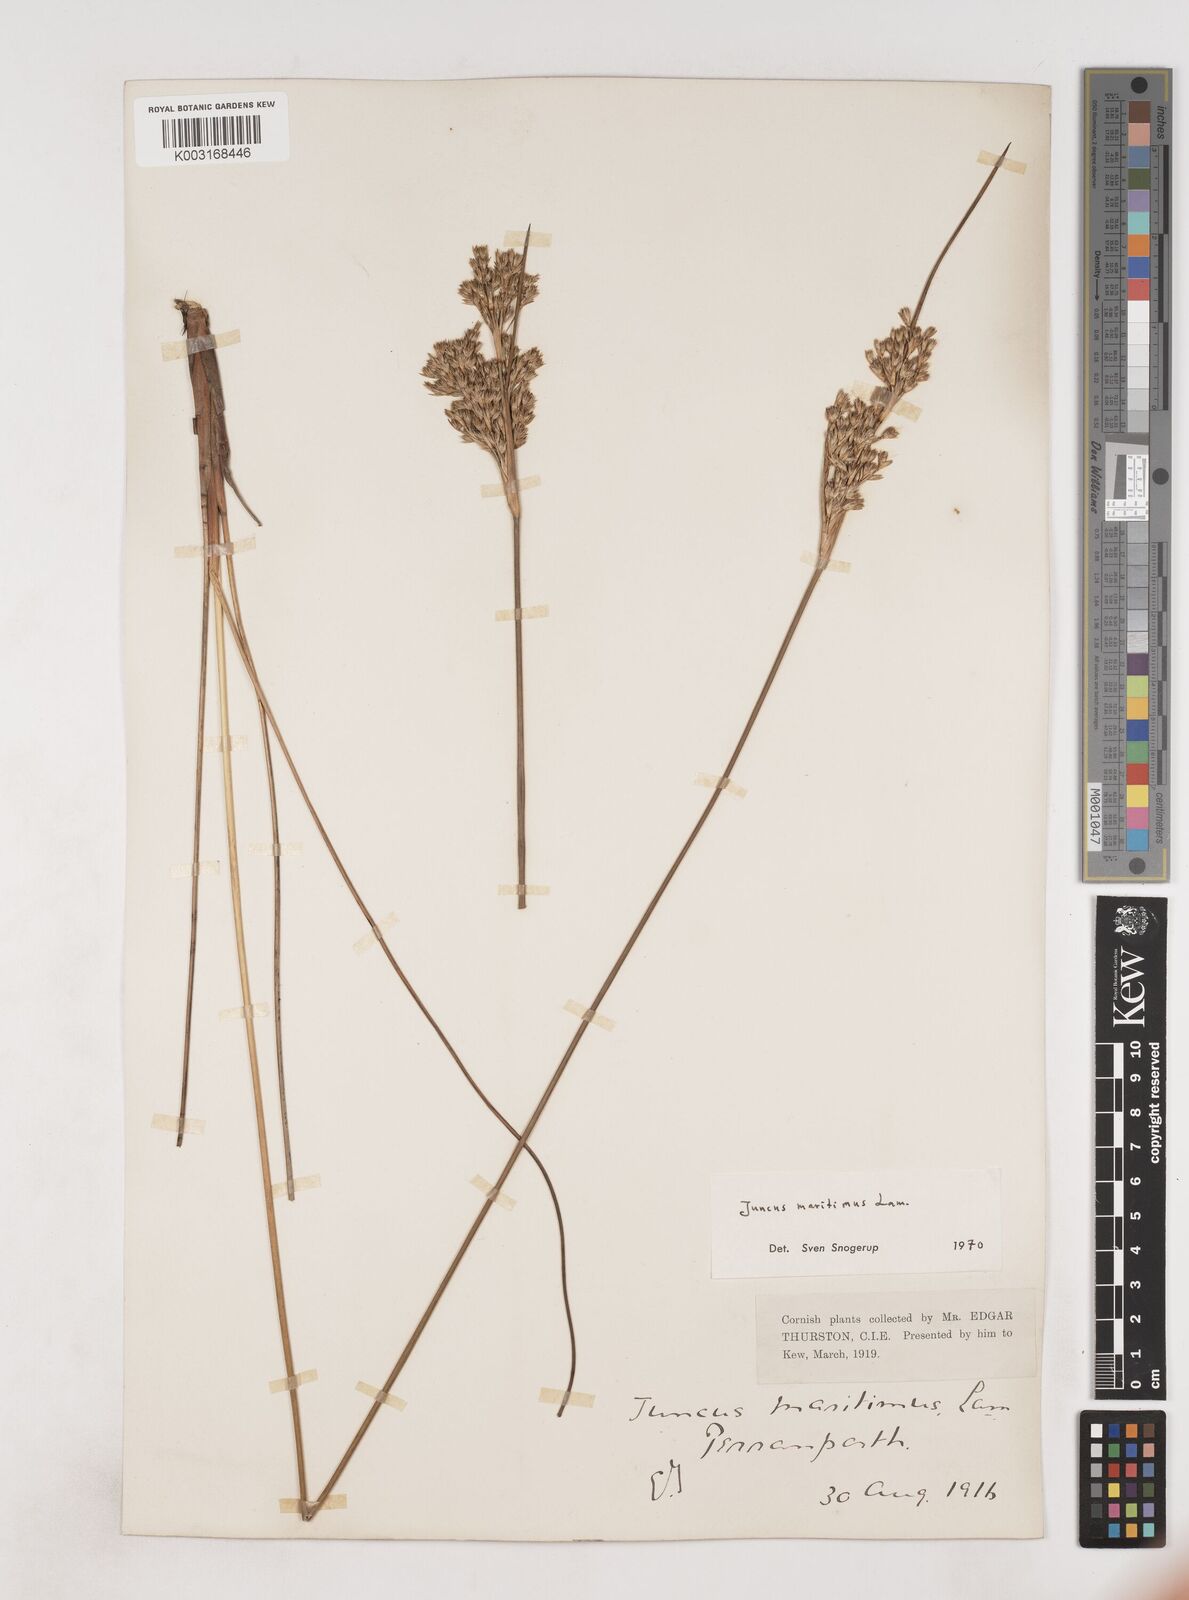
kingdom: Plantae
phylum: Tracheophyta
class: Liliopsida
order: Poales
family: Juncaceae
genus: Juncus
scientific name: Juncus maritimus
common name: Sea rush
